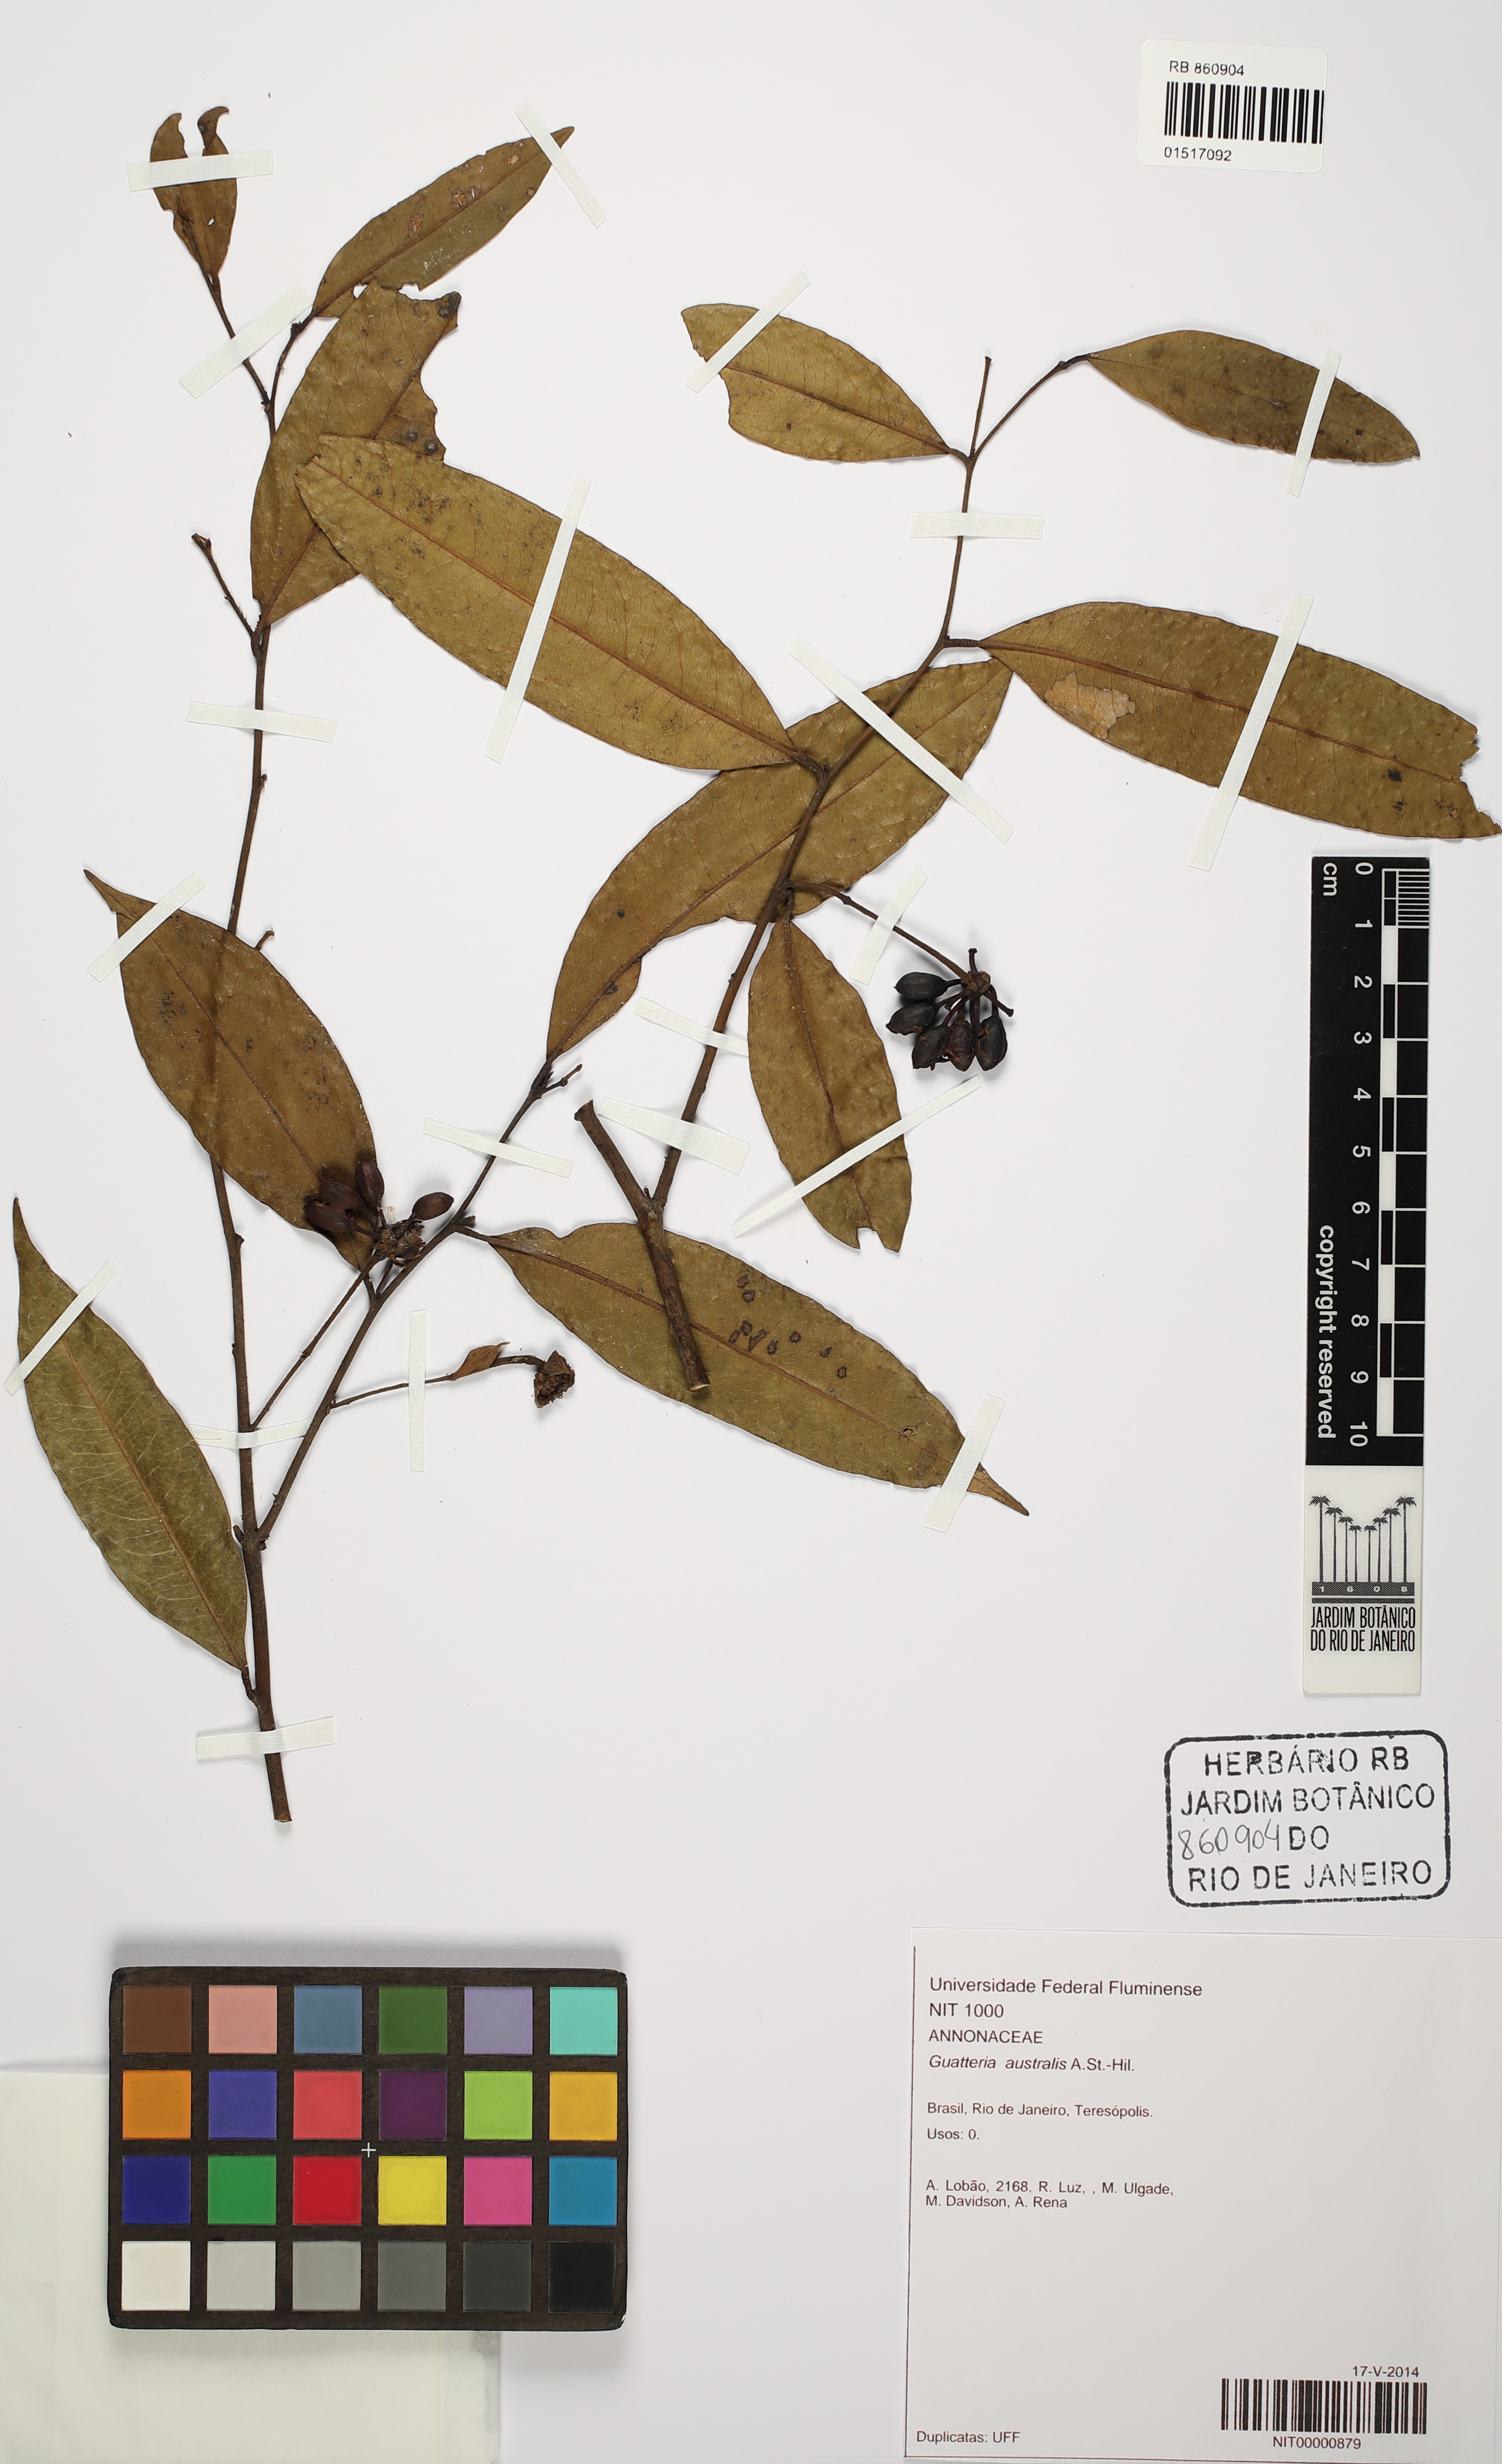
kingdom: Plantae
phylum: Tracheophyta
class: Magnoliopsida
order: Magnoliales
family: Annonaceae
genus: Guatteria
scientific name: Guatteria australis
